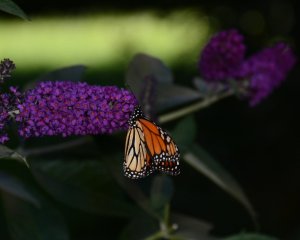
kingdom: Animalia
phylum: Arthropoda
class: Insecta
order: Lepidoptera
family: Nymphalidae
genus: Danaus
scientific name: Danaus plexippus
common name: Monarch
